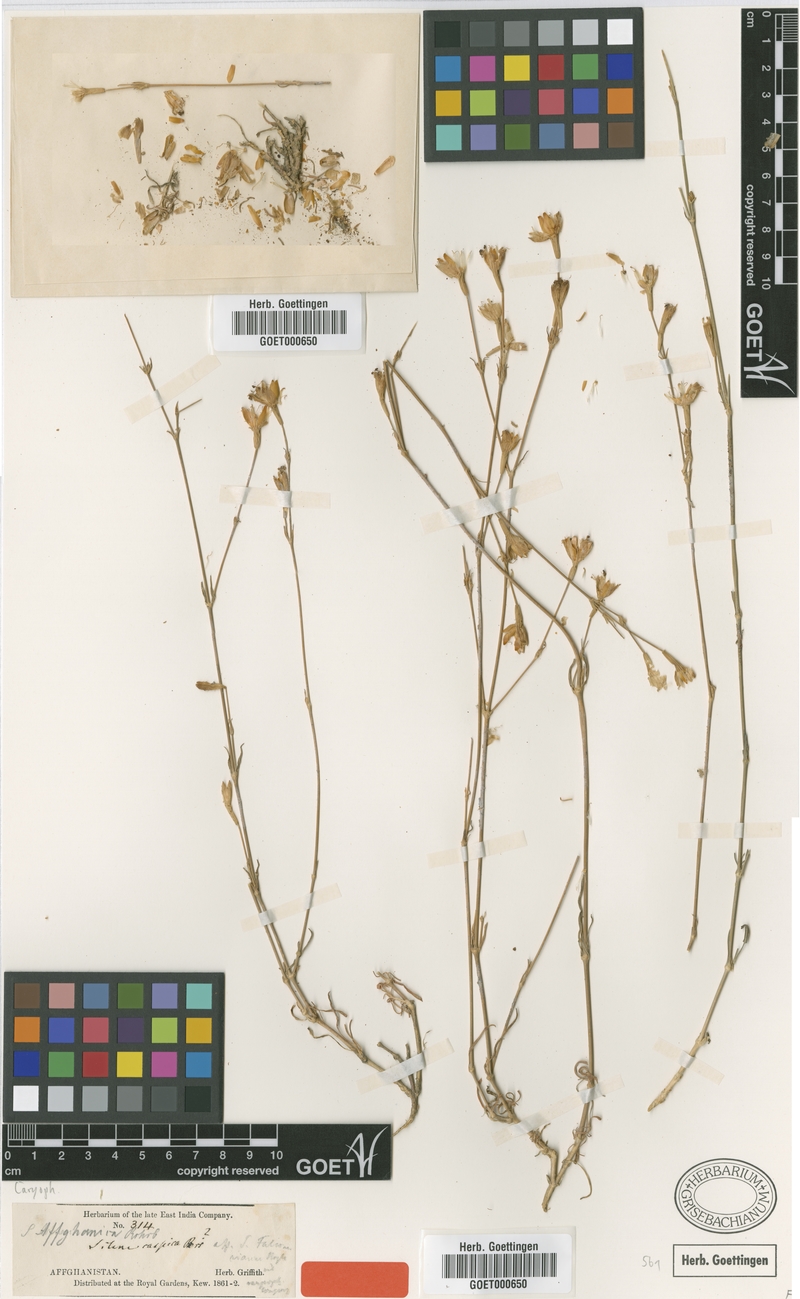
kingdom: Plantae
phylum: Tracheophyta
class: Magnoliopsida
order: Caryophyllales
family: Caryophyllaceae
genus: Silene
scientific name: Silene affghanica
